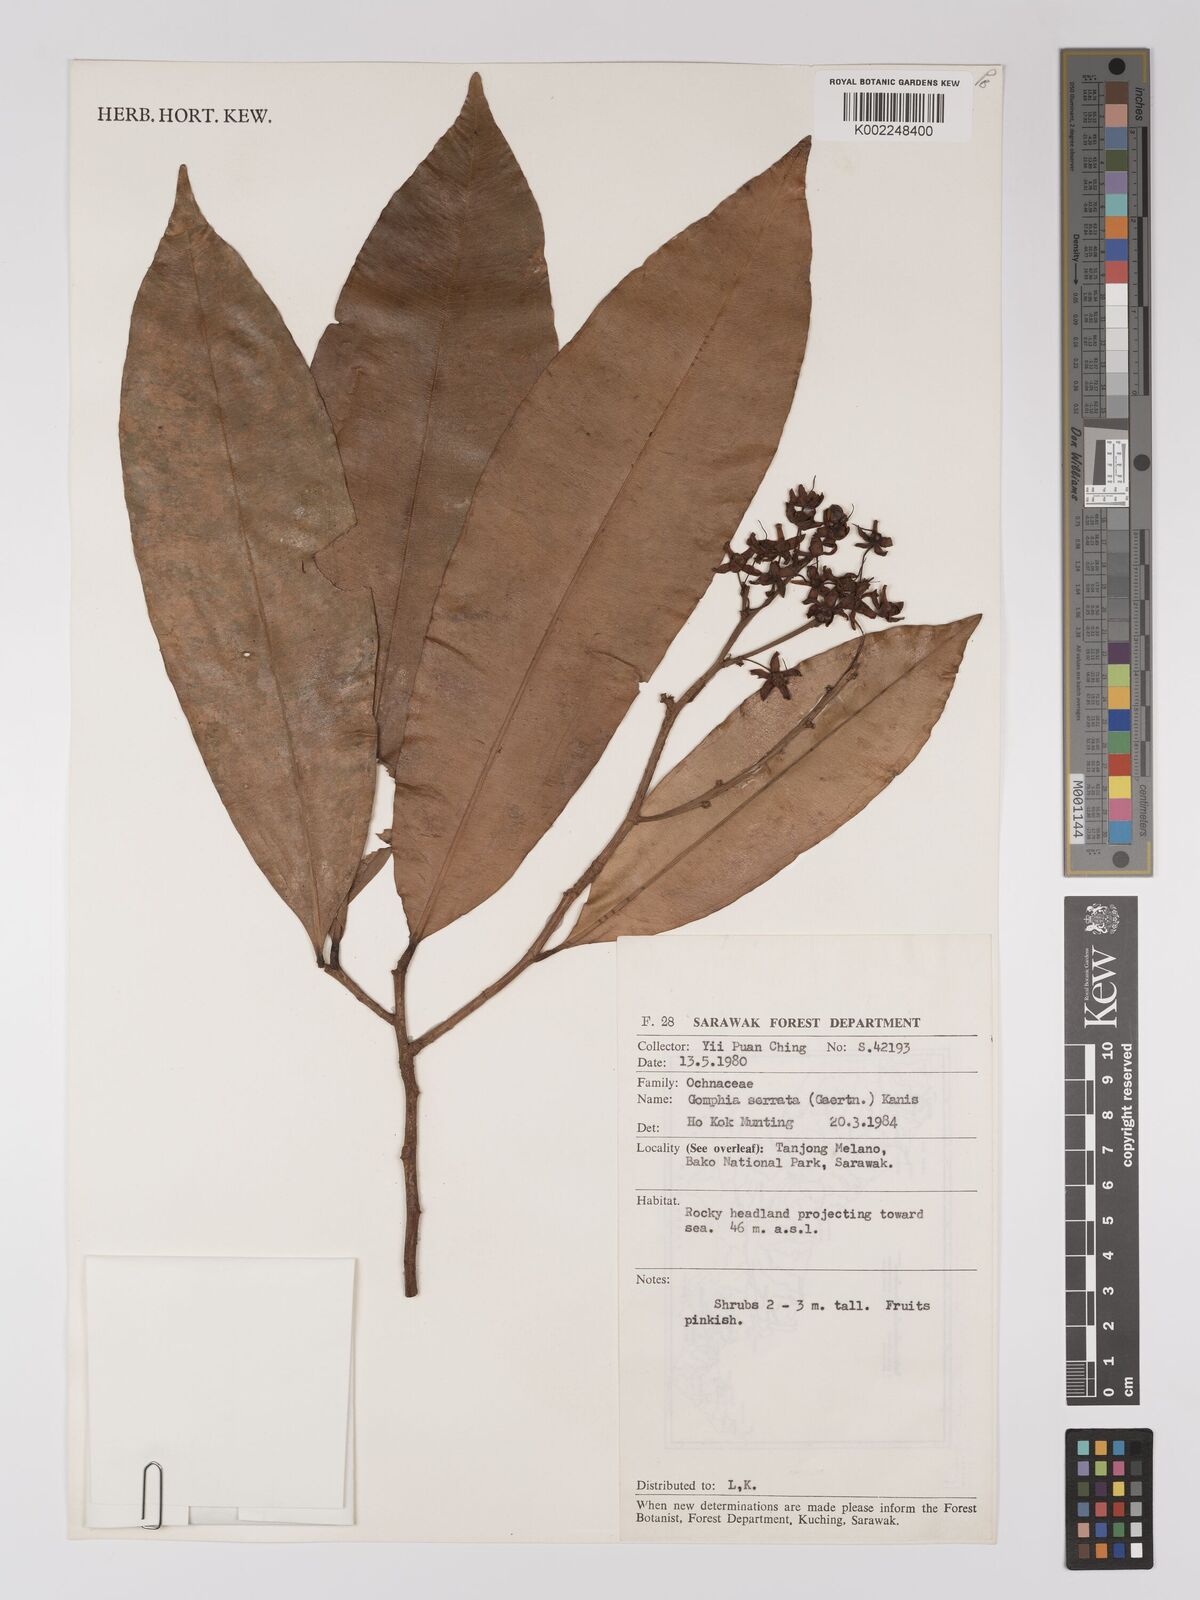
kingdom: Plantae
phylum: Tracheophyta
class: Magnoliopsida
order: Malpighiales
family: Ochnaceae
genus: Gomphia
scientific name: Gomphia serrata
